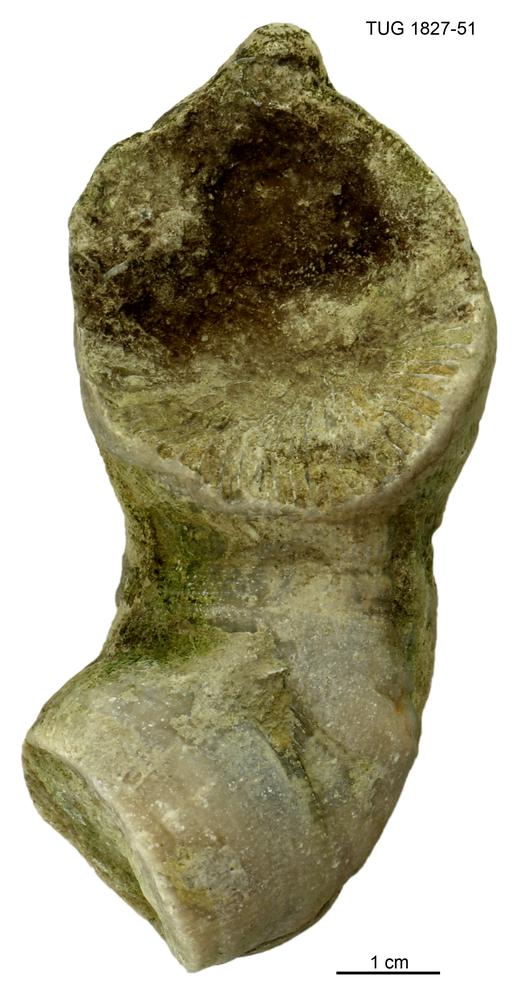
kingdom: Animalia
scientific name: Animalia
